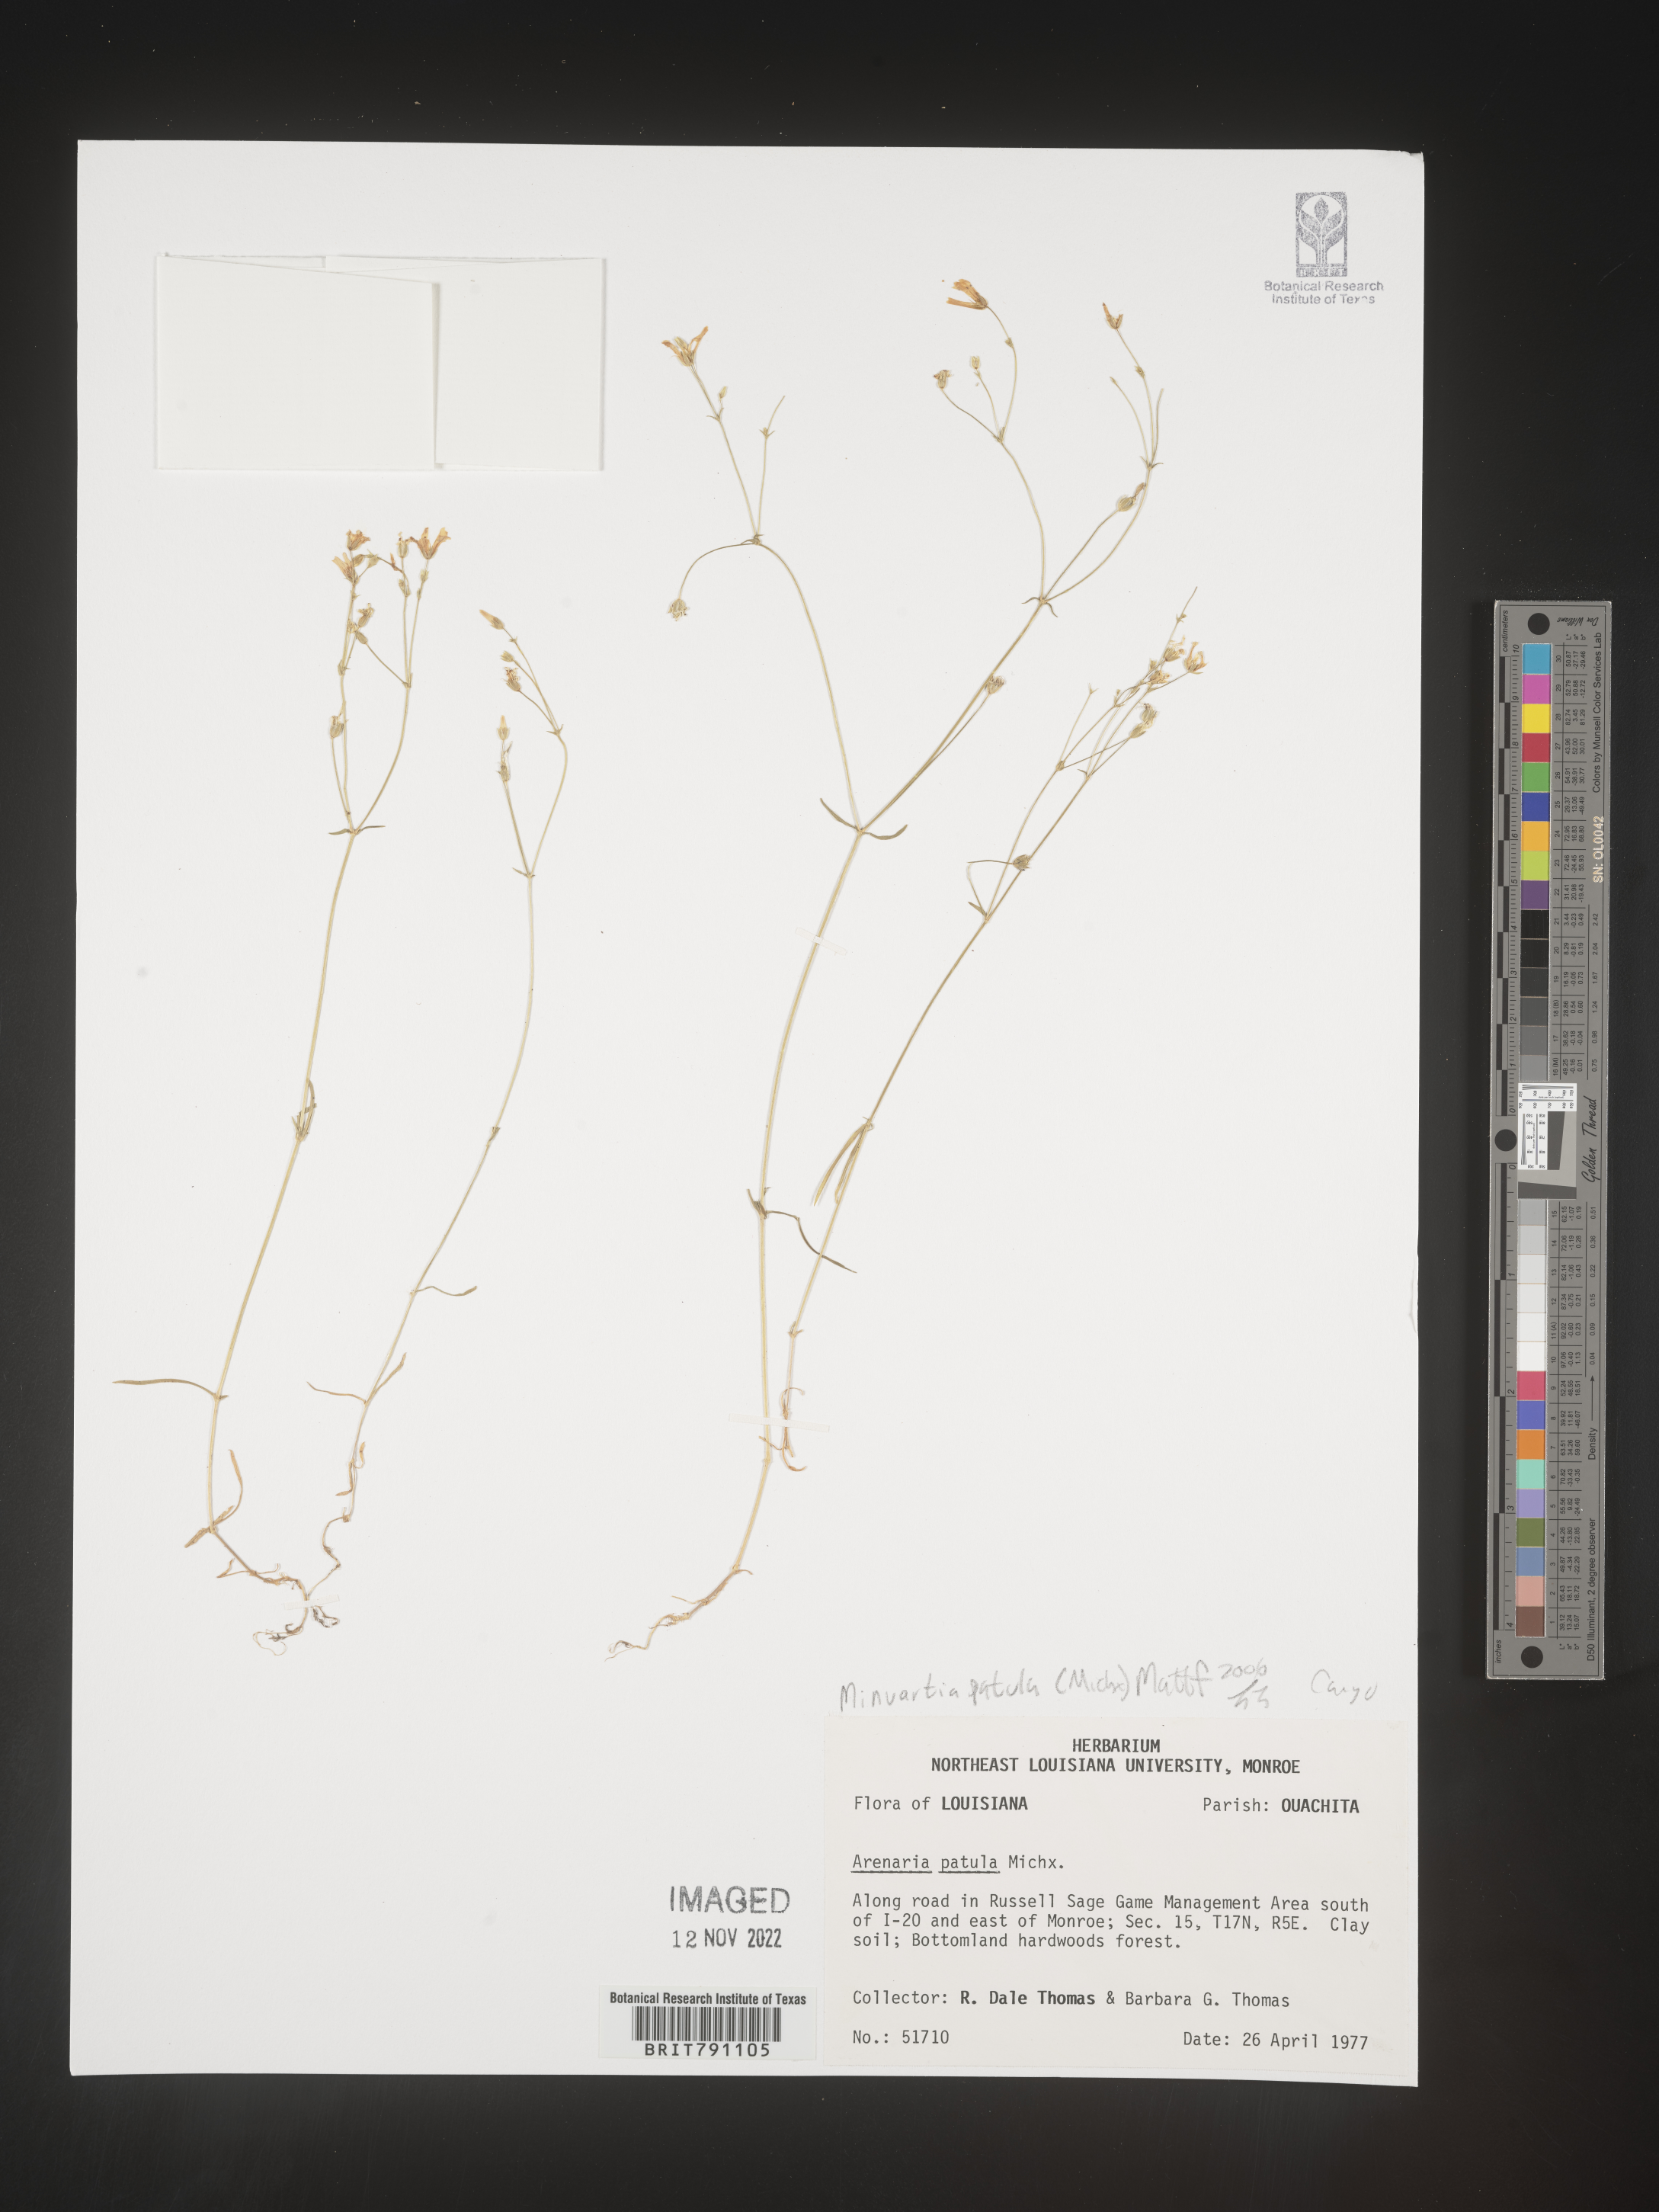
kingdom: Plantae
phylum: Tracheophyta
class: Magnoliopsida
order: Caryophyllales
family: Caryophyllaceae
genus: Mononeuria
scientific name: Mononeuria patula
